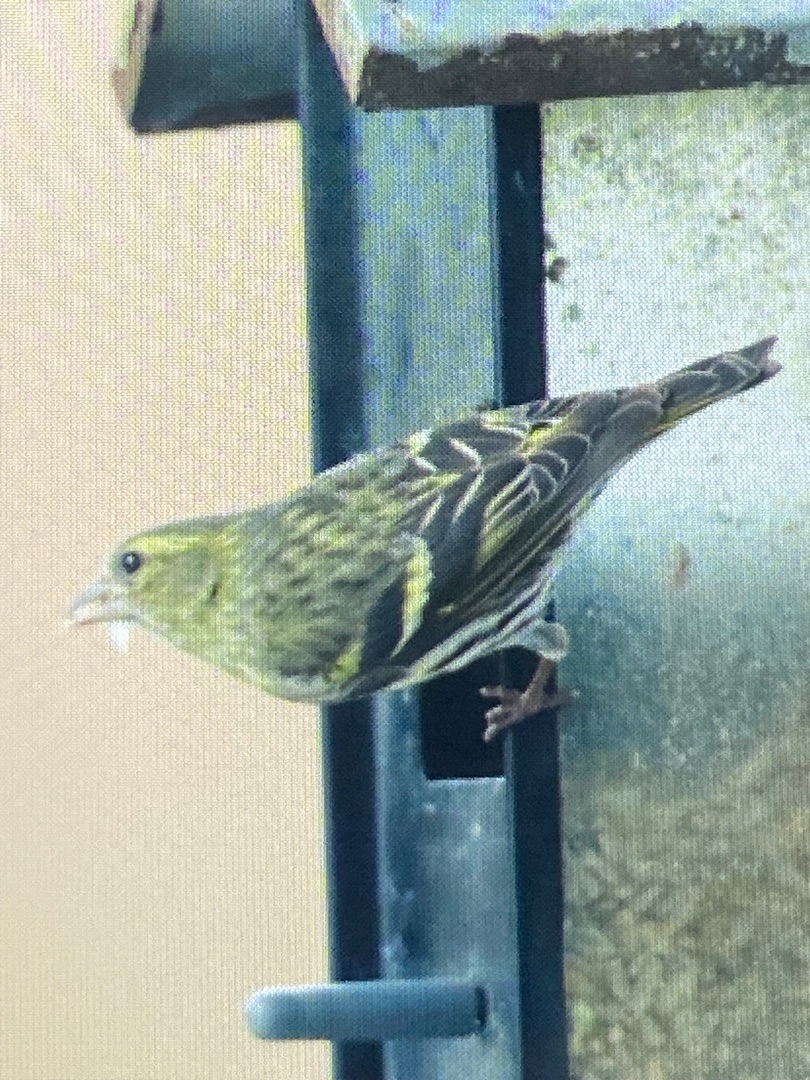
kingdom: Animalia
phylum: Chordata
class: Aves
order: Passeriformes
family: Fringillidae
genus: Spinus
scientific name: Spinus spinus
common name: Grønsisken
